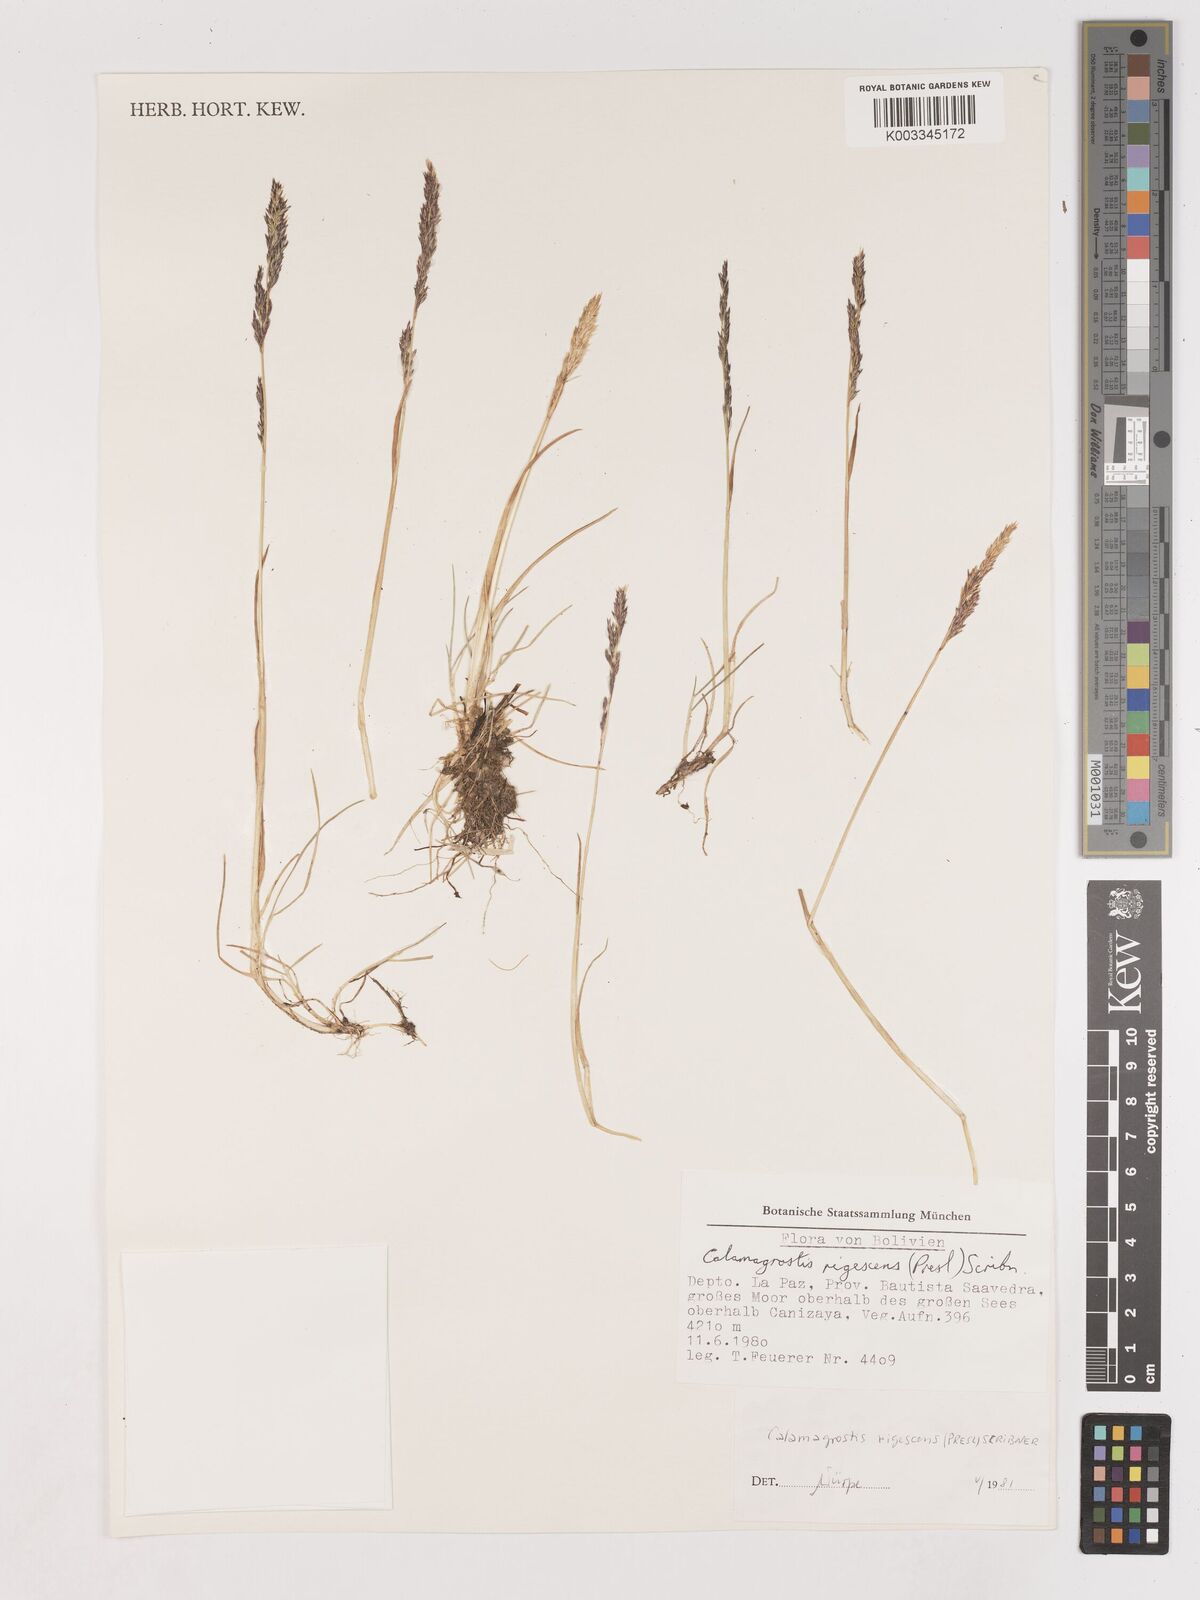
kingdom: Plantae
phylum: Tracheophyta
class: Liliopsida
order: Poales
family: Poaceae
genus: Calamagrostis
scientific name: Calamagrostis
